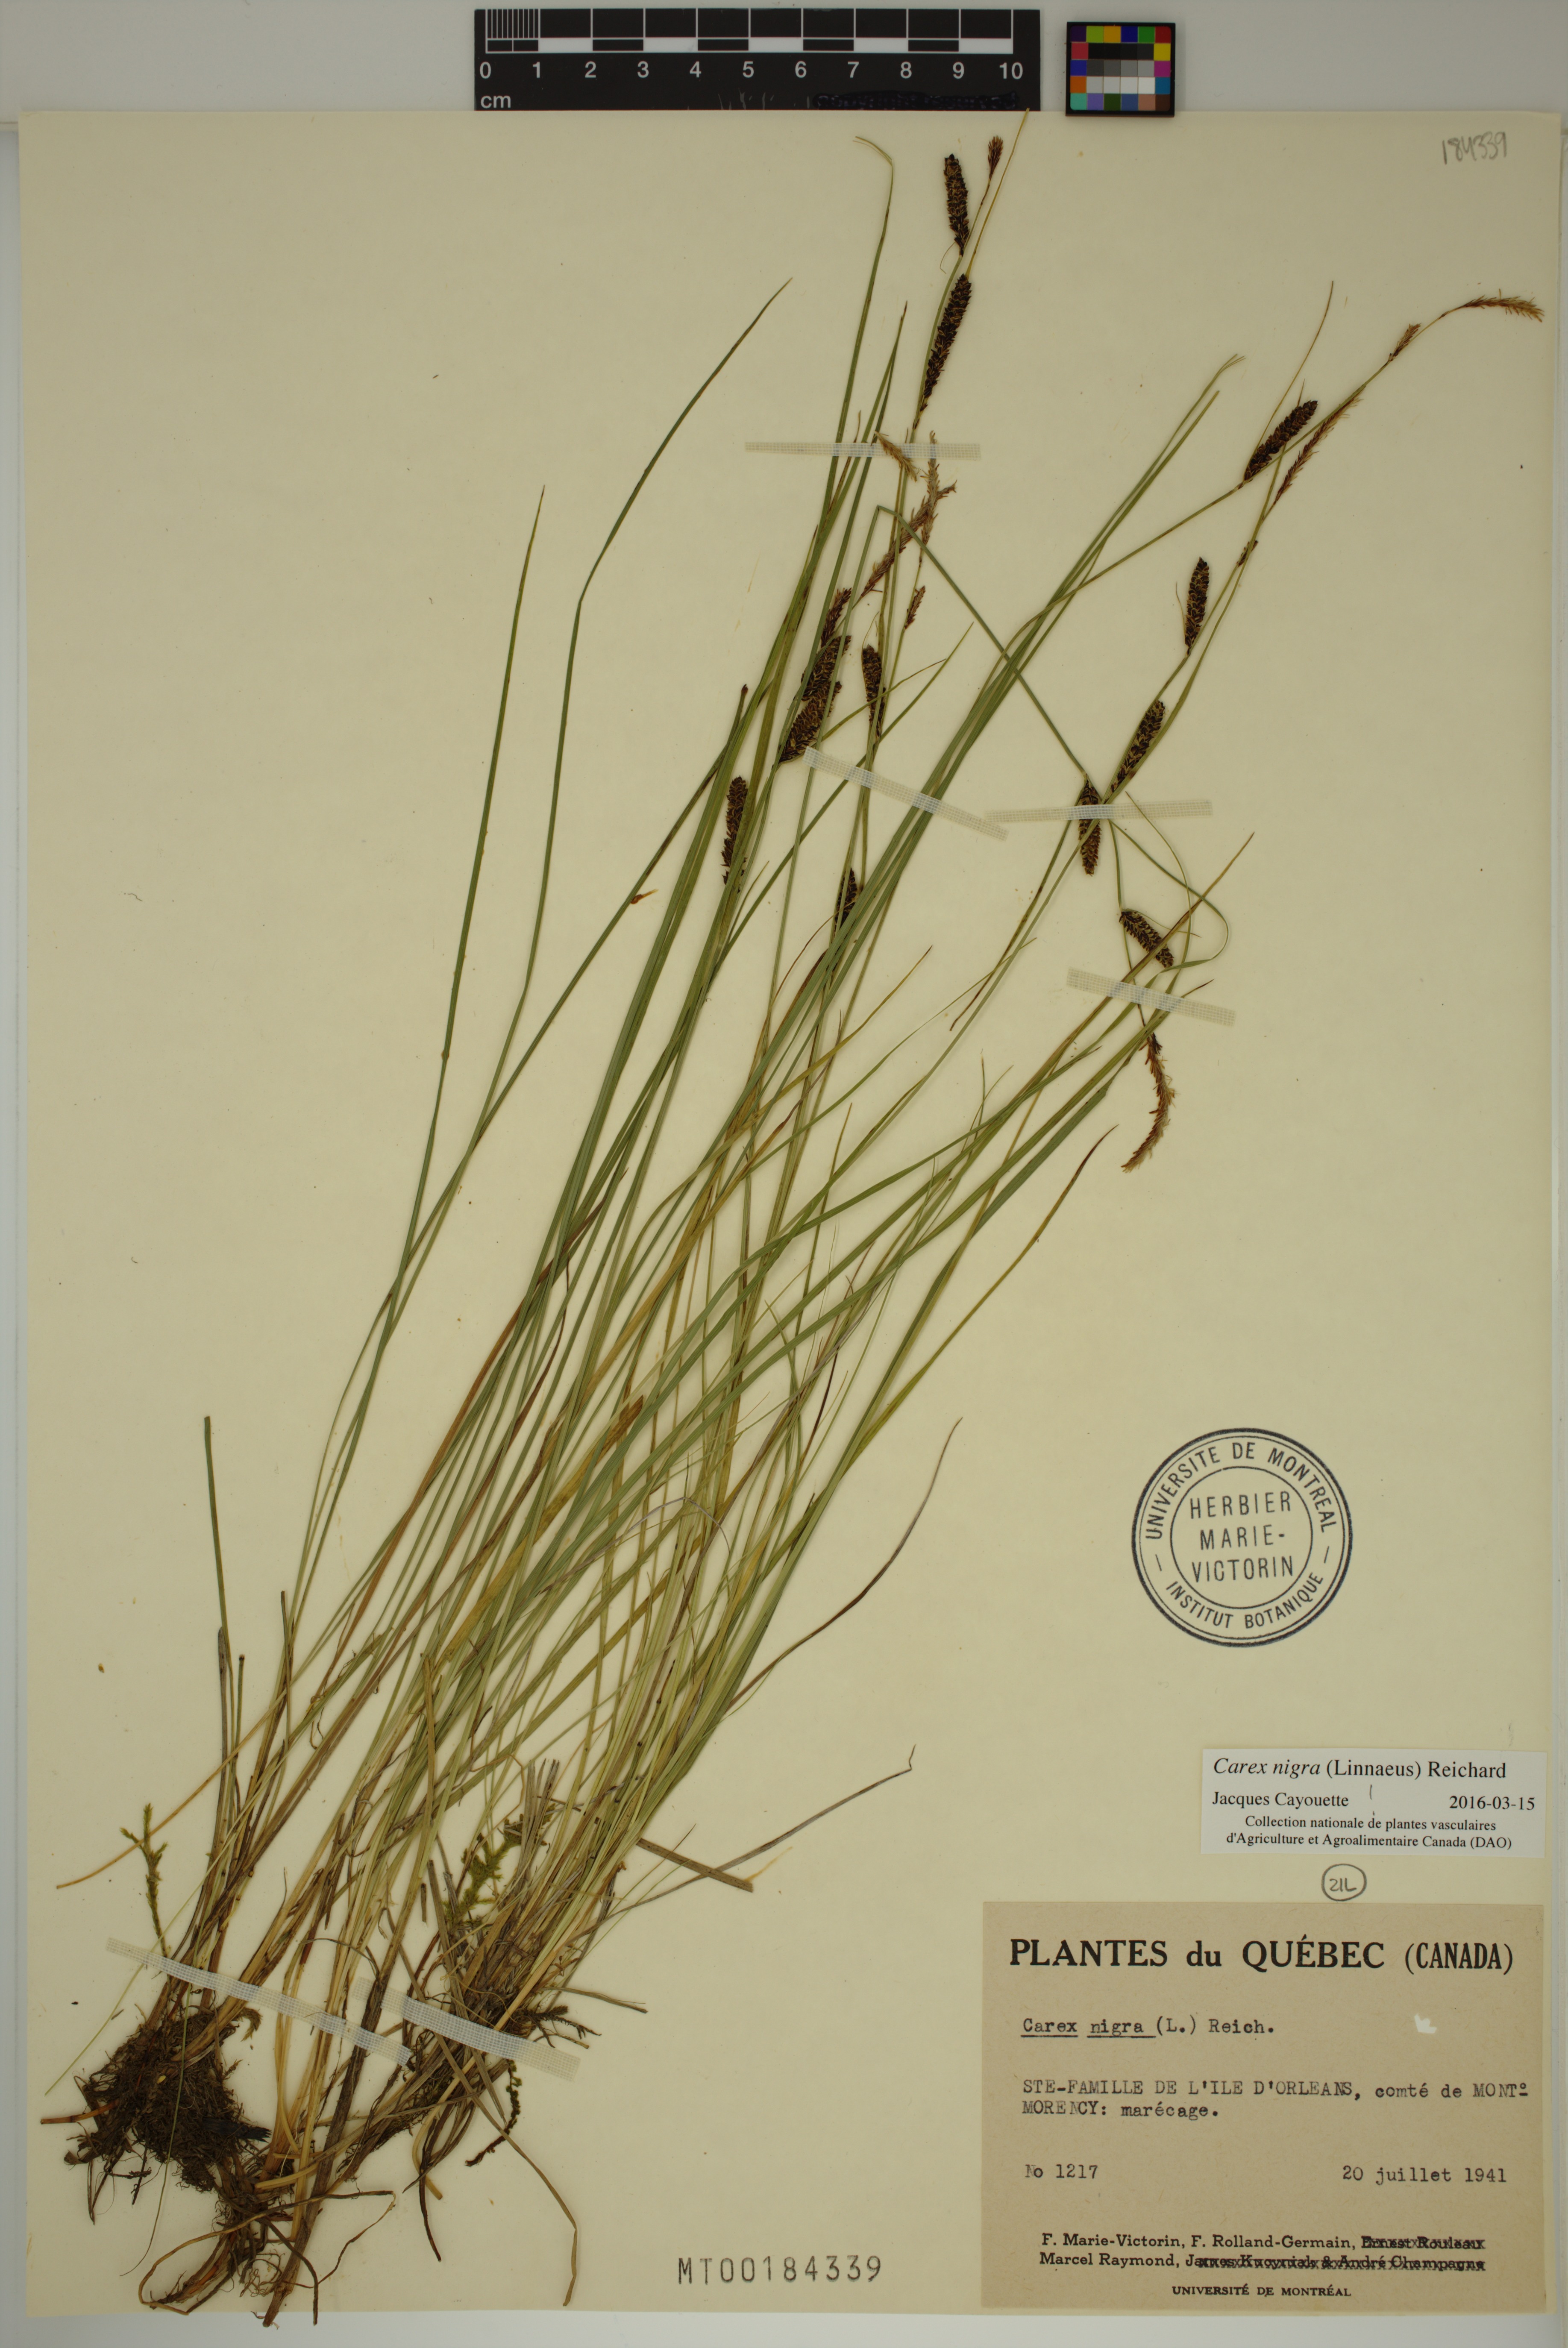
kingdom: Plantae
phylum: Tracheophyta
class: Liliopsida
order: Poales
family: Cyperaceae
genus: Carex
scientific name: Carex nigra
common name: Common sedge
